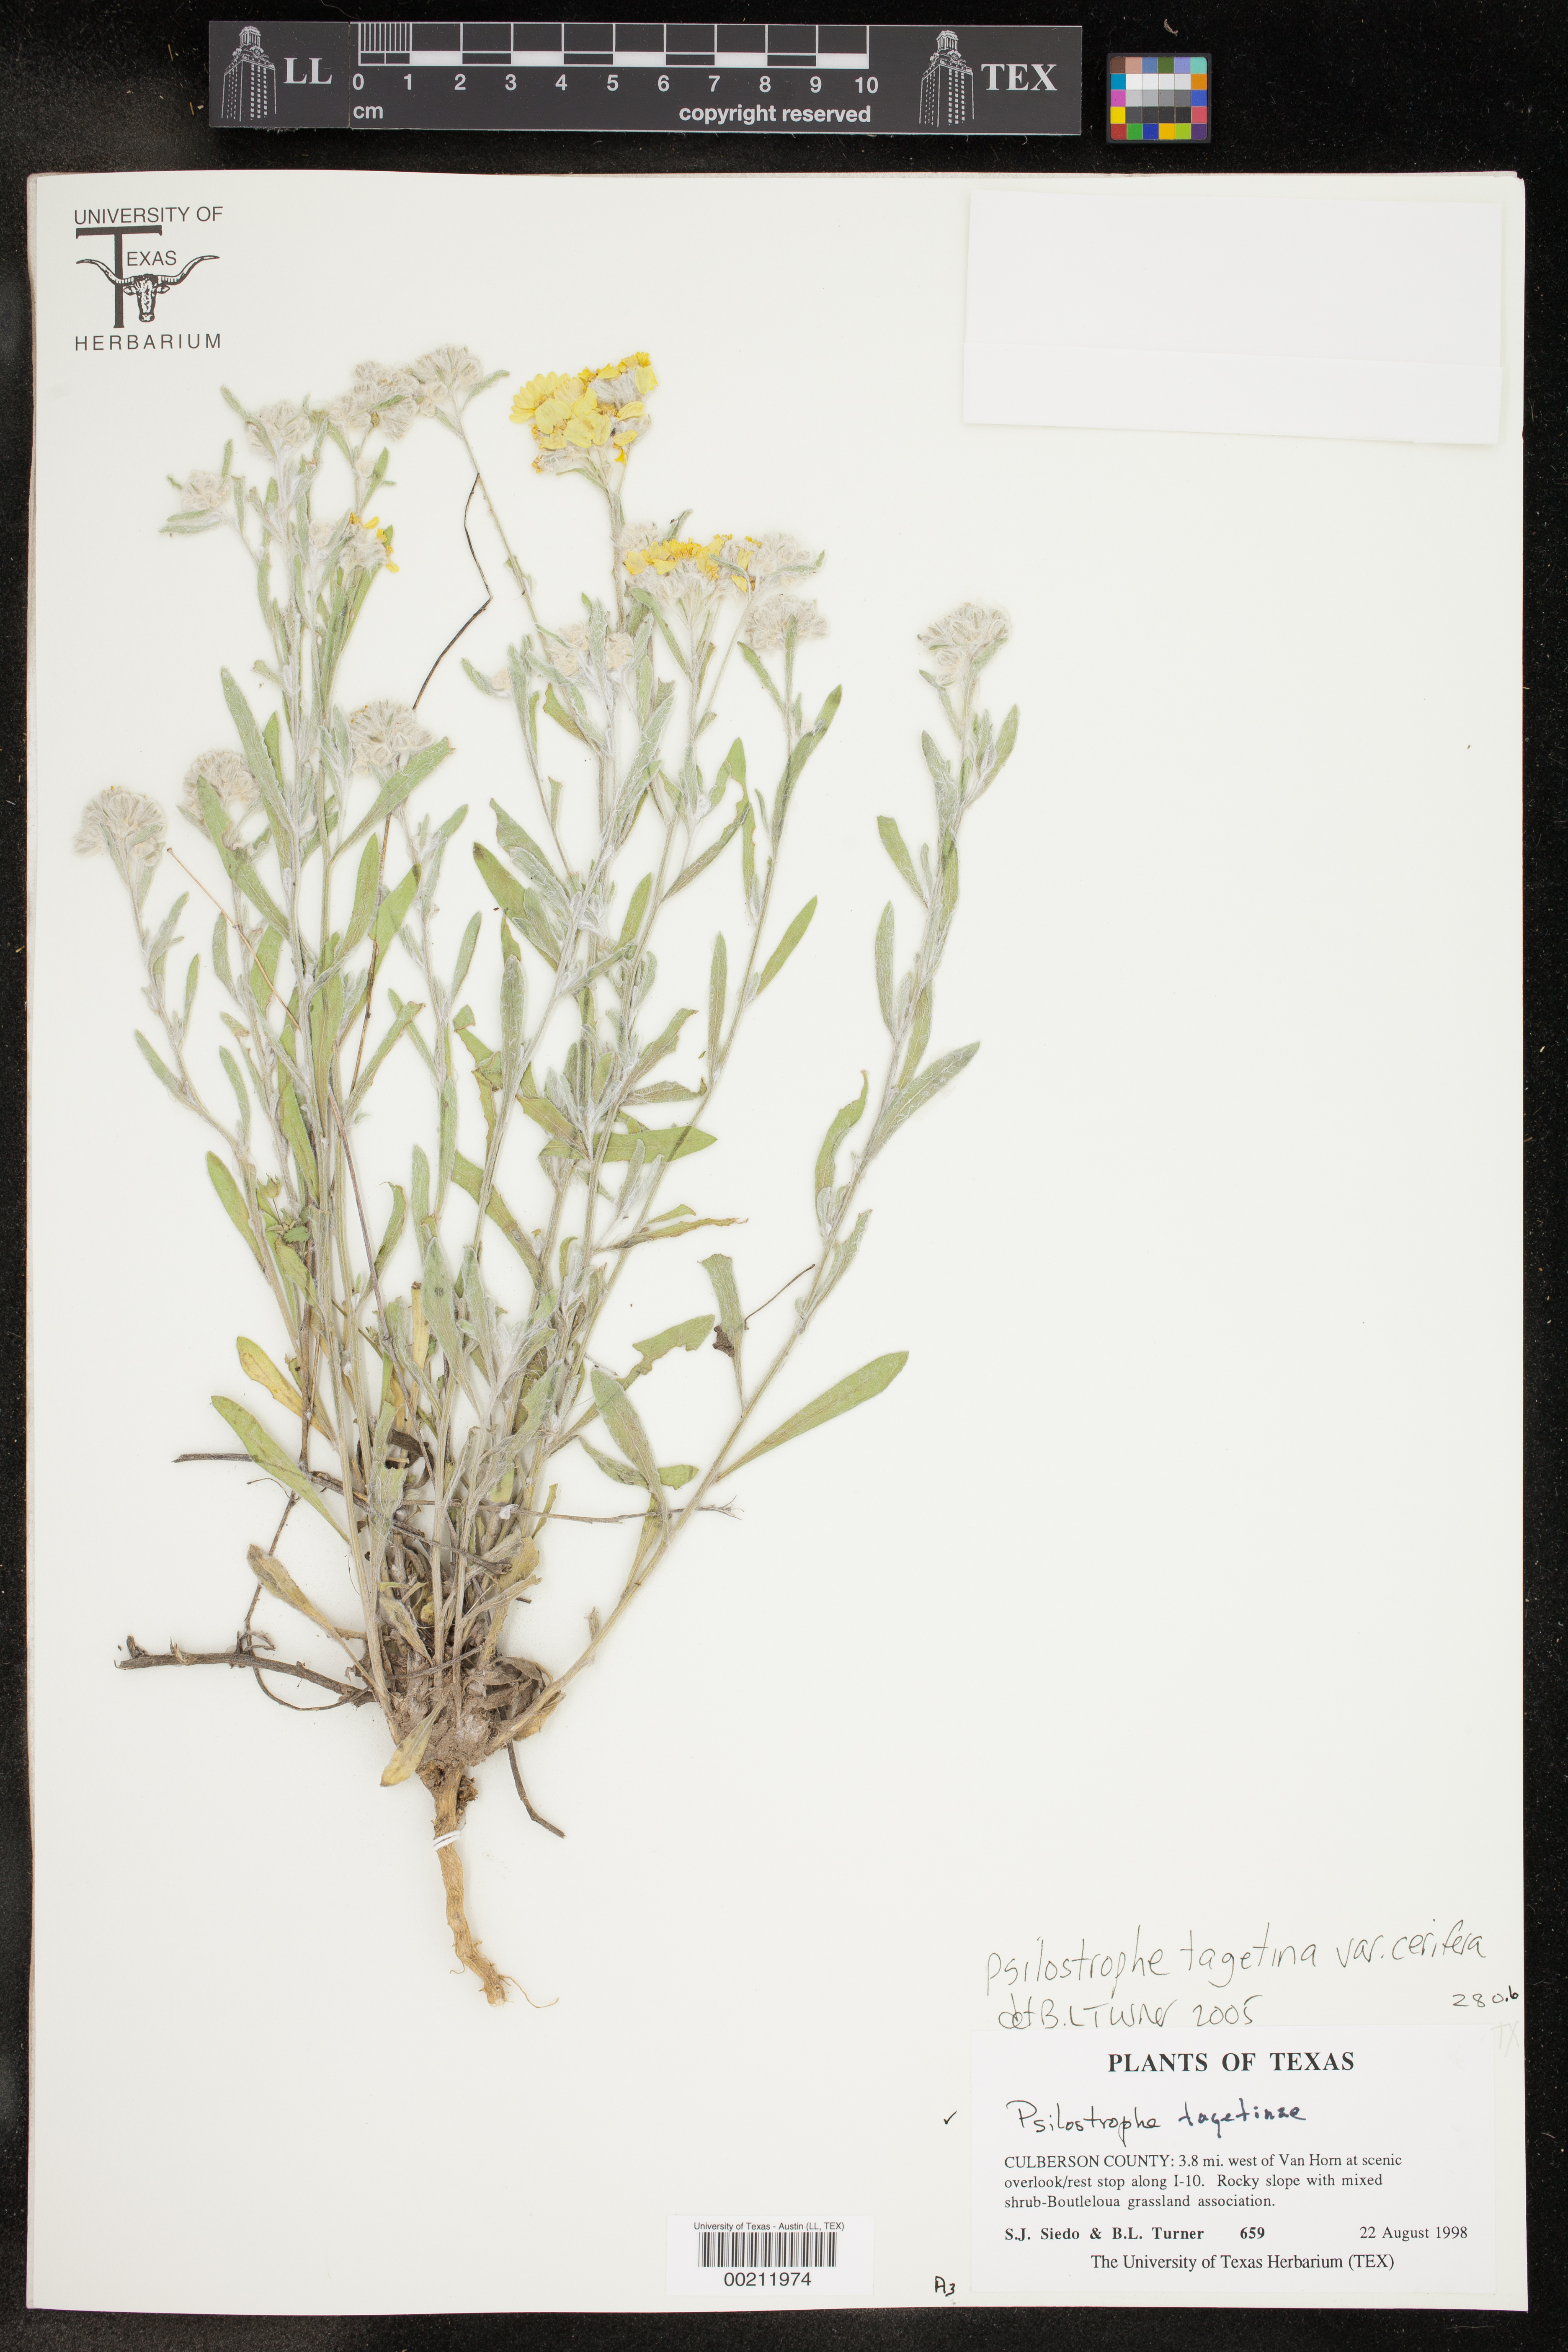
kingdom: Plantae
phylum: Tracheophyta
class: Magnoliopsida
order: Asterales
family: Asteraceae
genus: Psilostrophe
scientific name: Psilostrophe villosa
